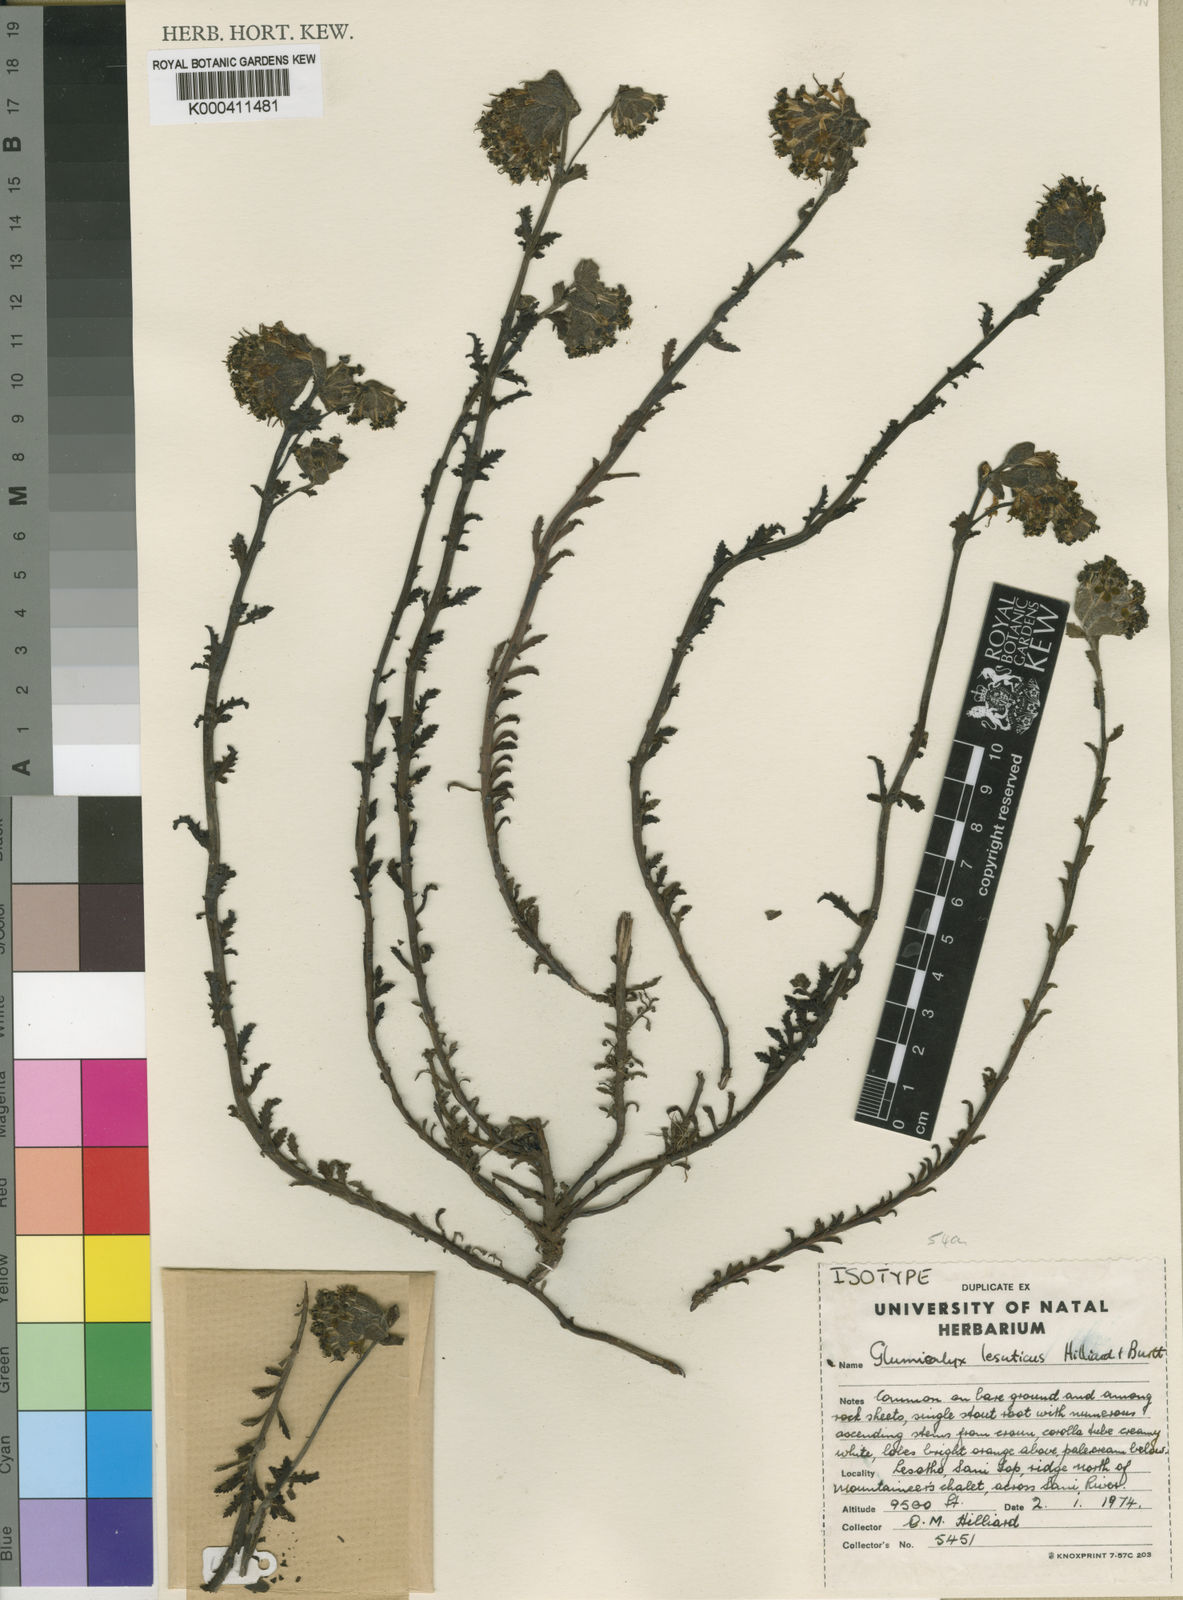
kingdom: Plantae
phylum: Tracheophyta
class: Magnoliopsida
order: Lamiales
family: Scrophulariaceae
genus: Glumicalyx
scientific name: Glumicalyx lesuticus
